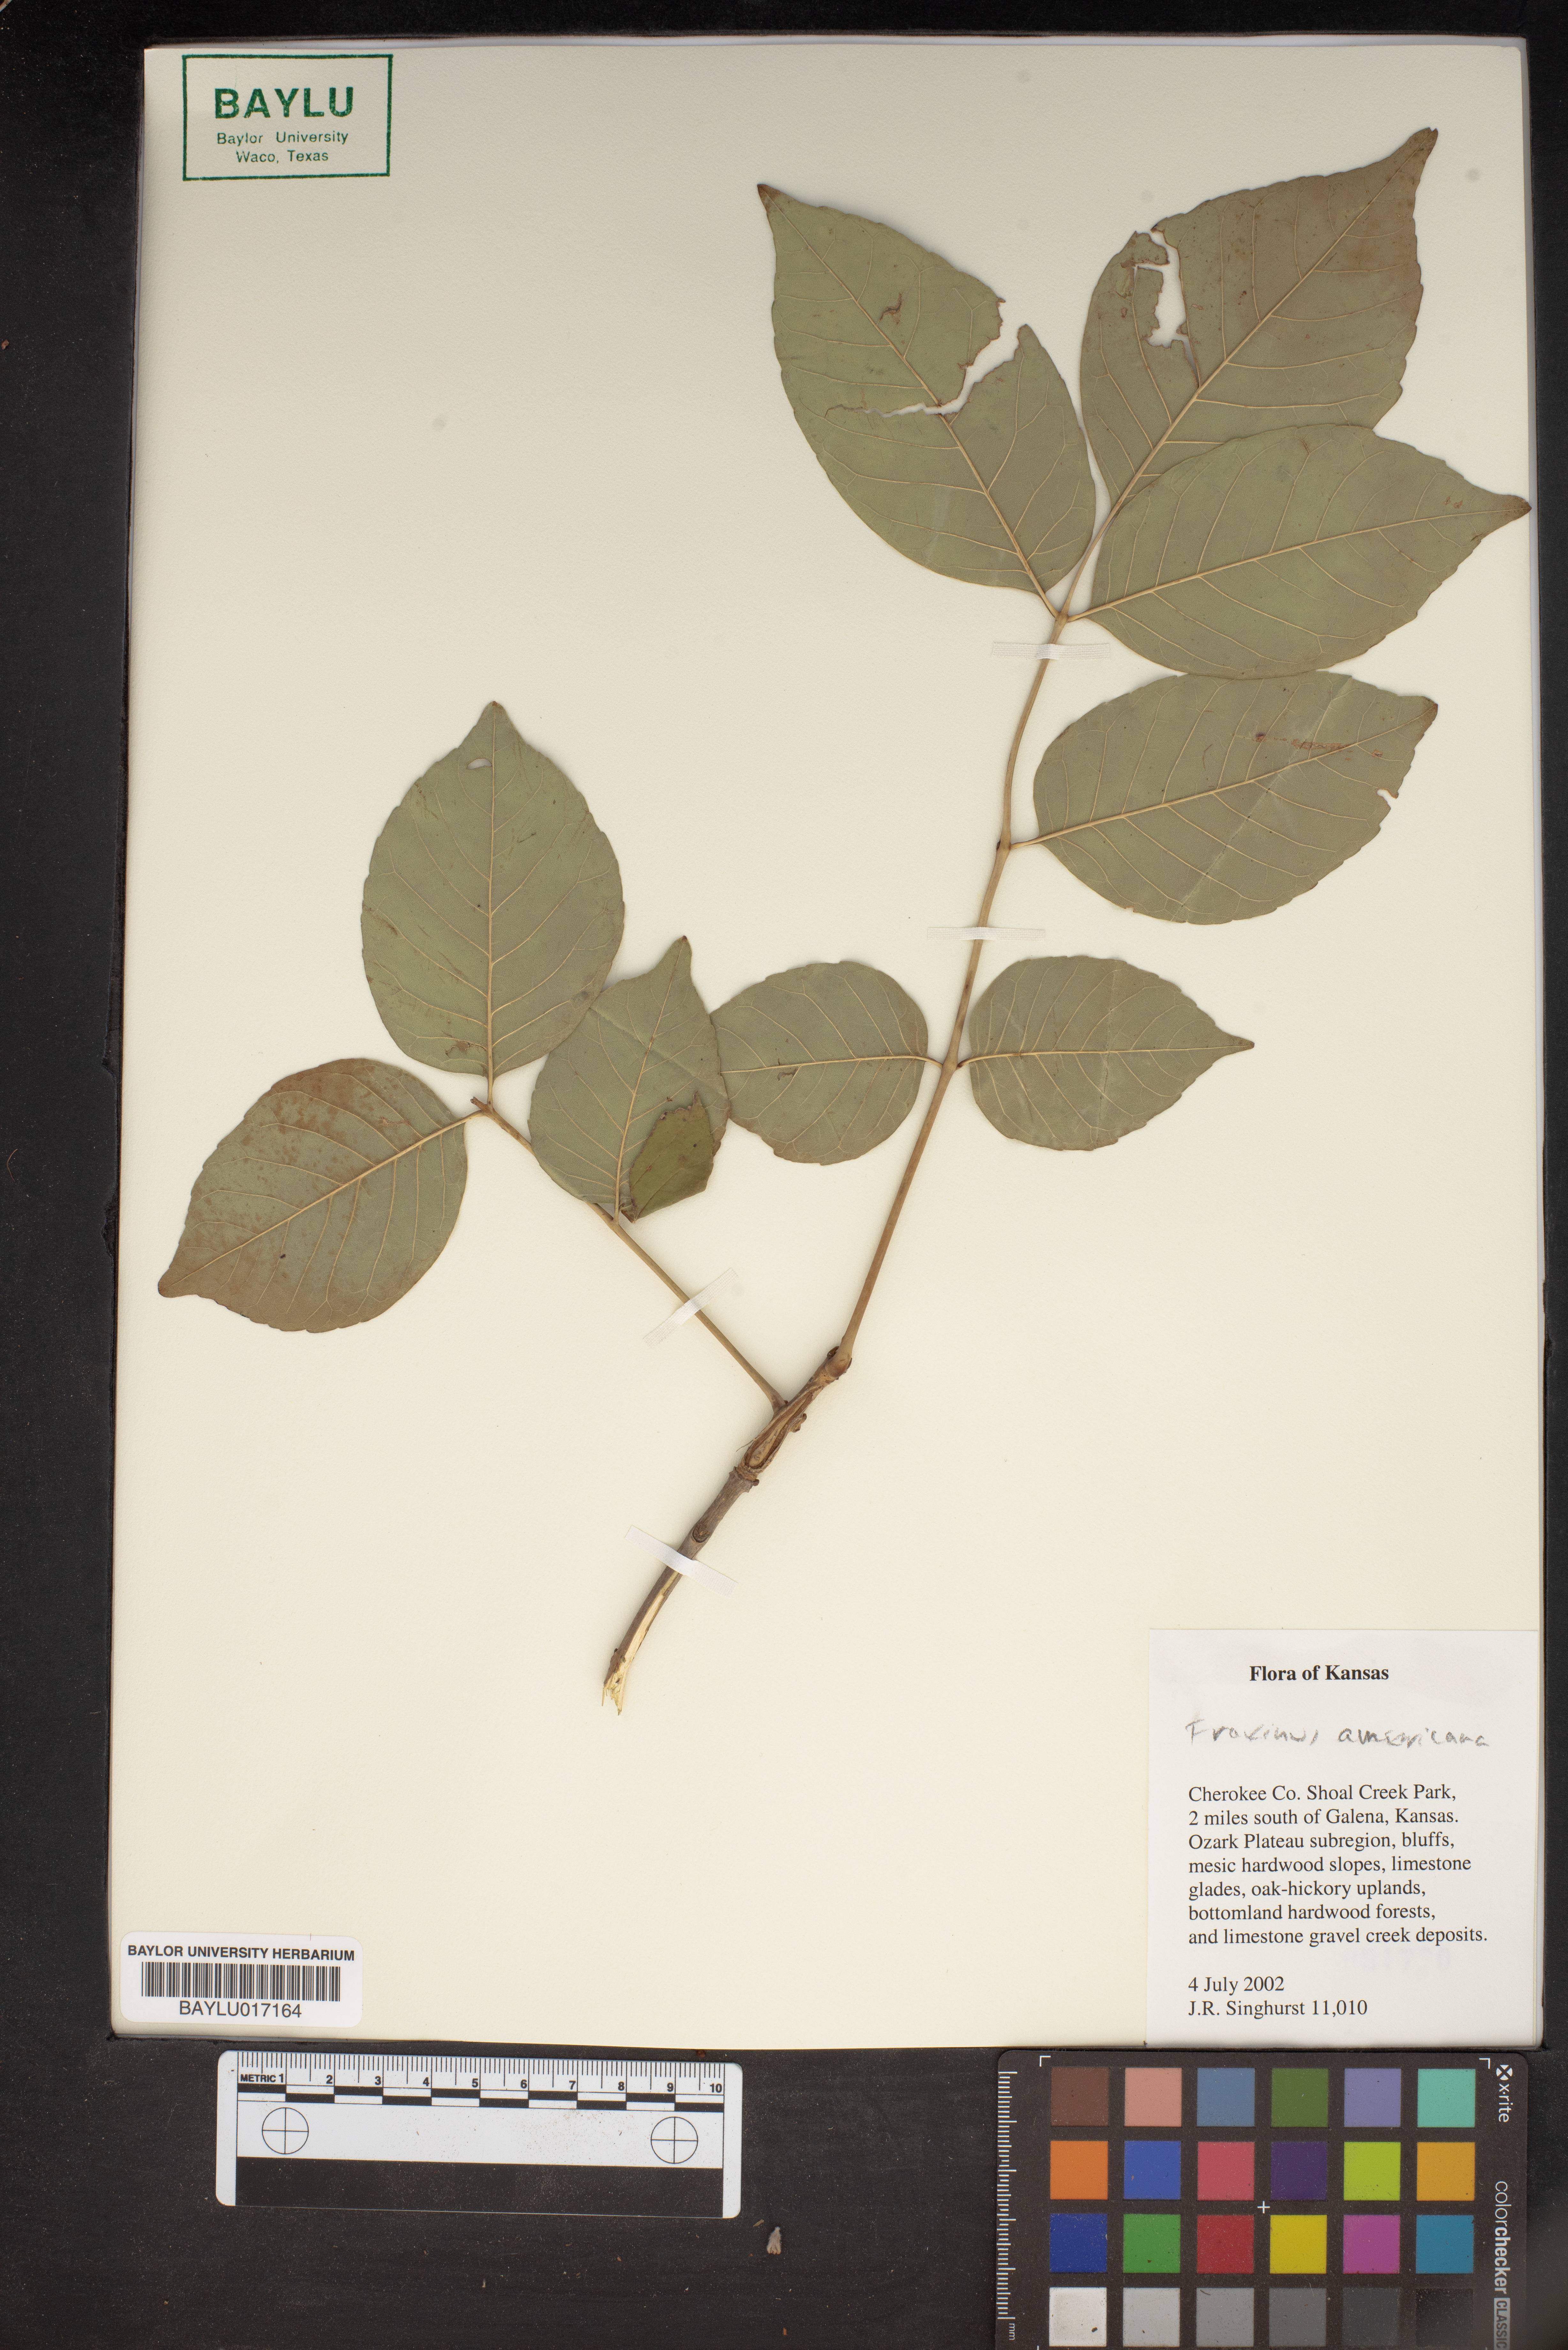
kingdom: Plantae
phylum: Tracheophyta
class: Magnoliopsida
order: Lamiales
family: Oleaceae
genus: Fraxinus
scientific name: Fraxinus americana
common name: White ash
